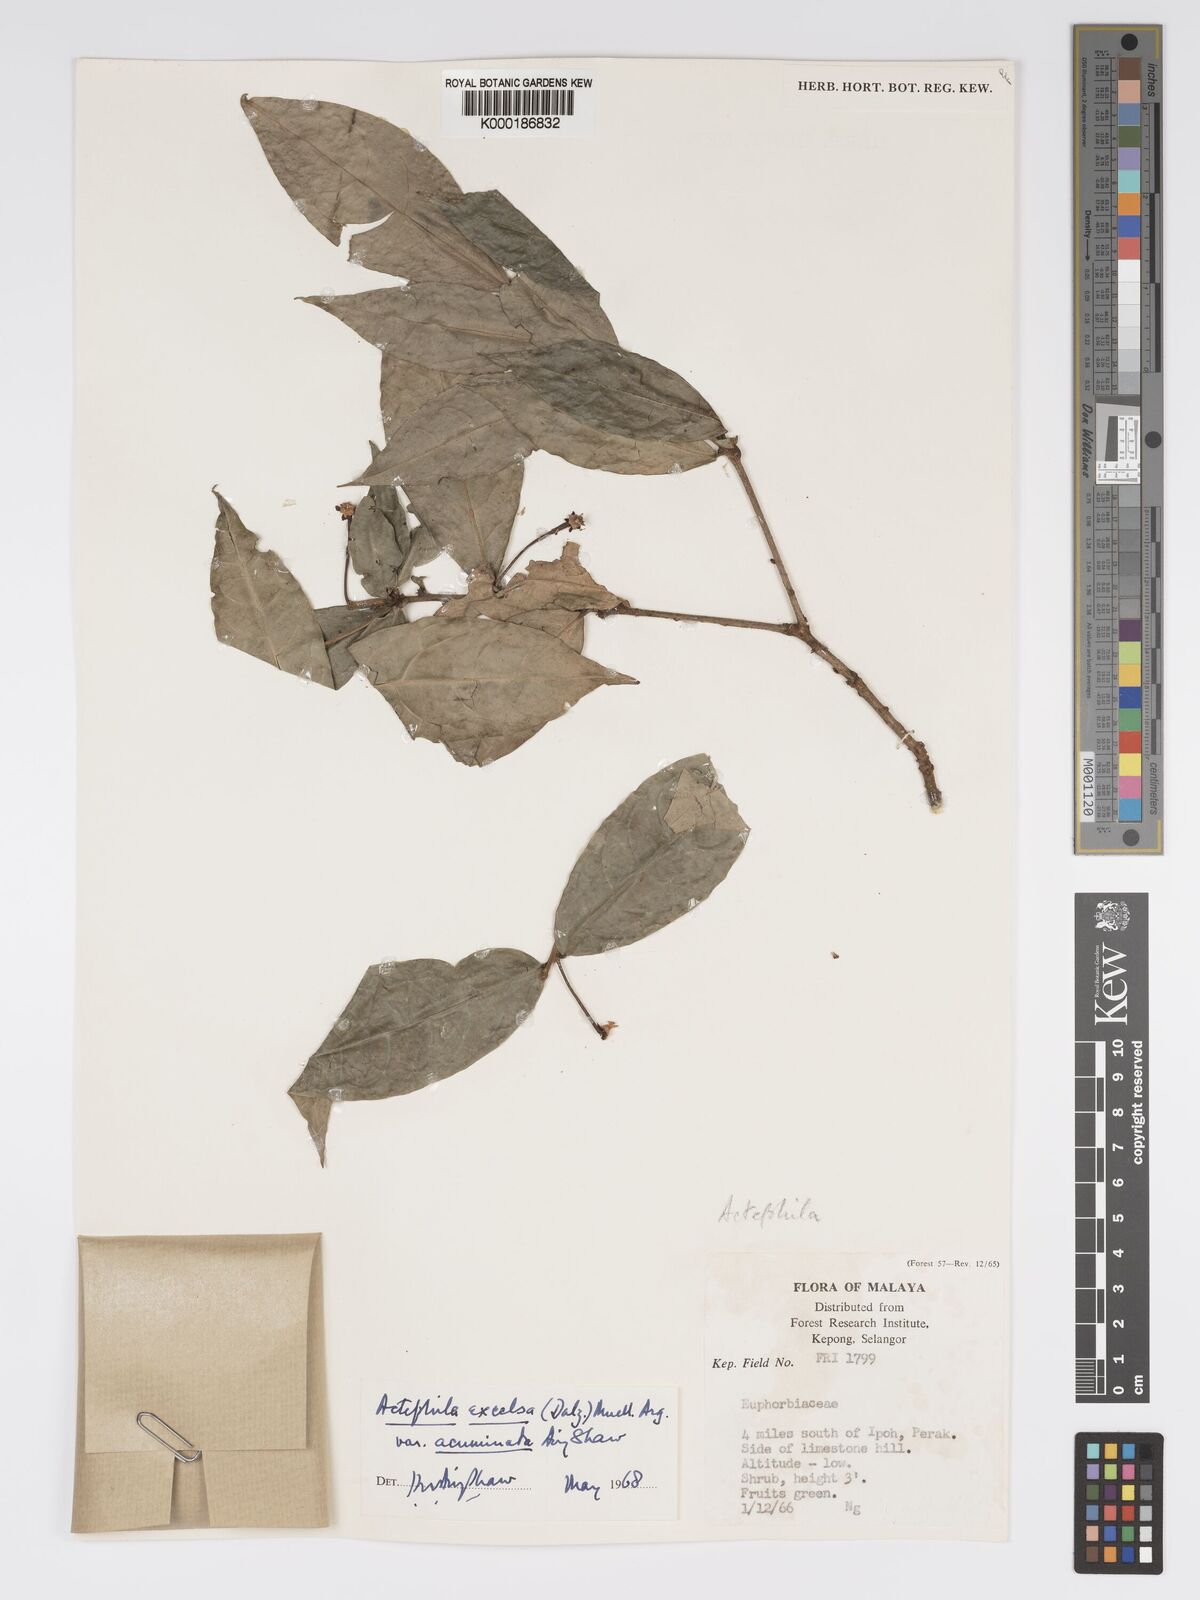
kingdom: Plantae
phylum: Tracheophyta
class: Magnoliopsida
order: Malpighiales
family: Phyllanthaceae
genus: Actephila
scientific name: Actephila subsessilis
